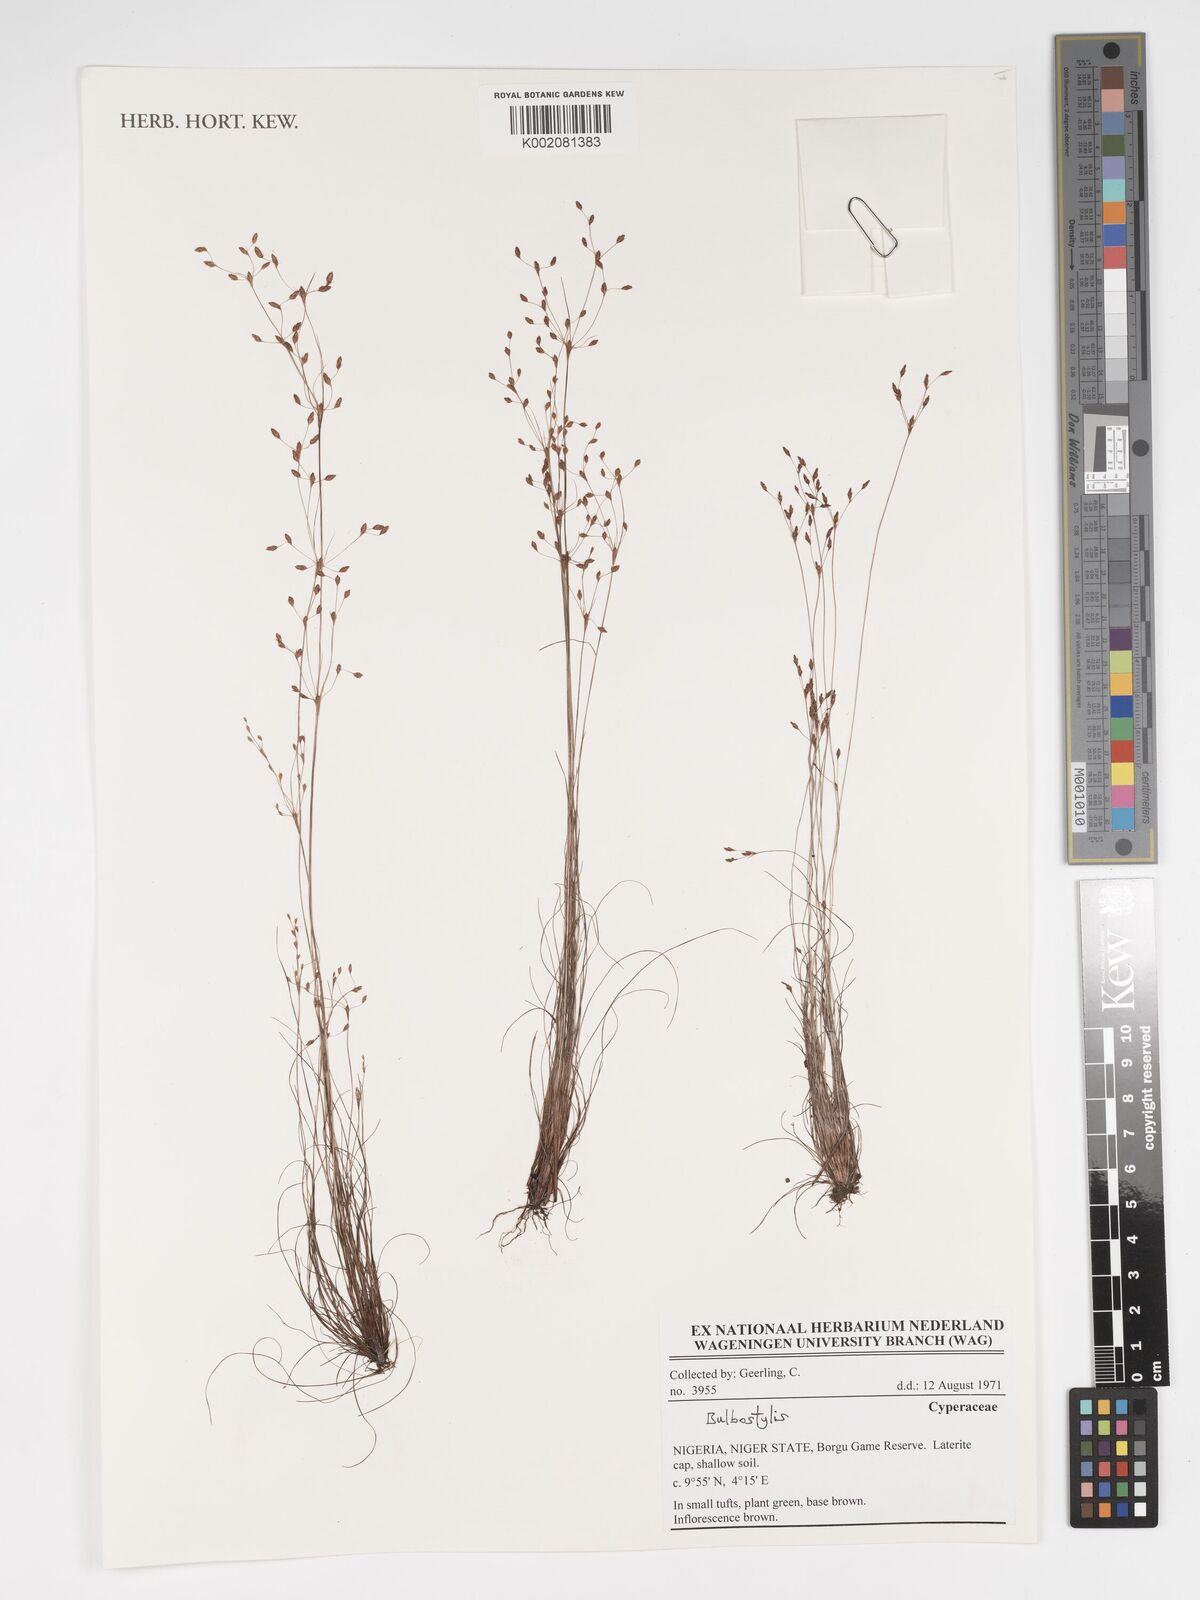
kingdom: Plantae
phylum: Tracheophyta
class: Liliopsida
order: Poales
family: Cyperaceae
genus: Bulbostylis
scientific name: Bulbostylis
